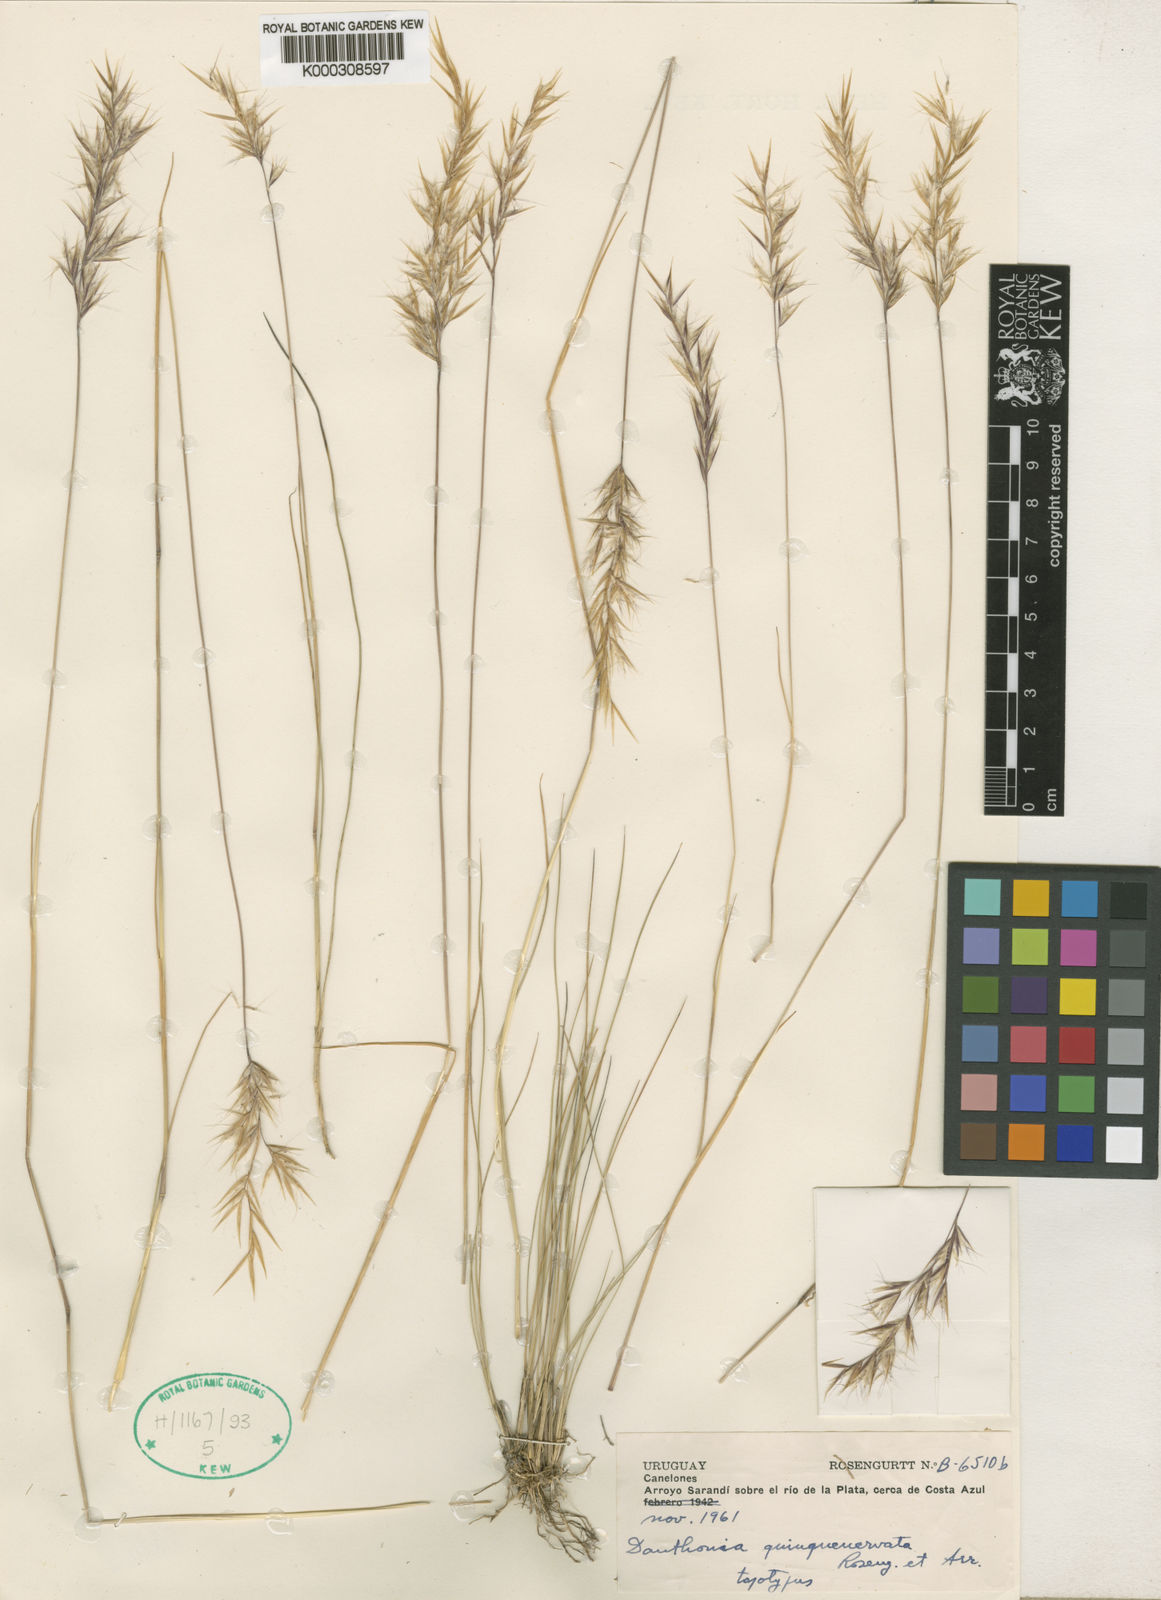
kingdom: Plantae
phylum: Tracheophyta
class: Liliopsida
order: Poales
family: Poaceae
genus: Danthonia
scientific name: Danthonia secundiflora
